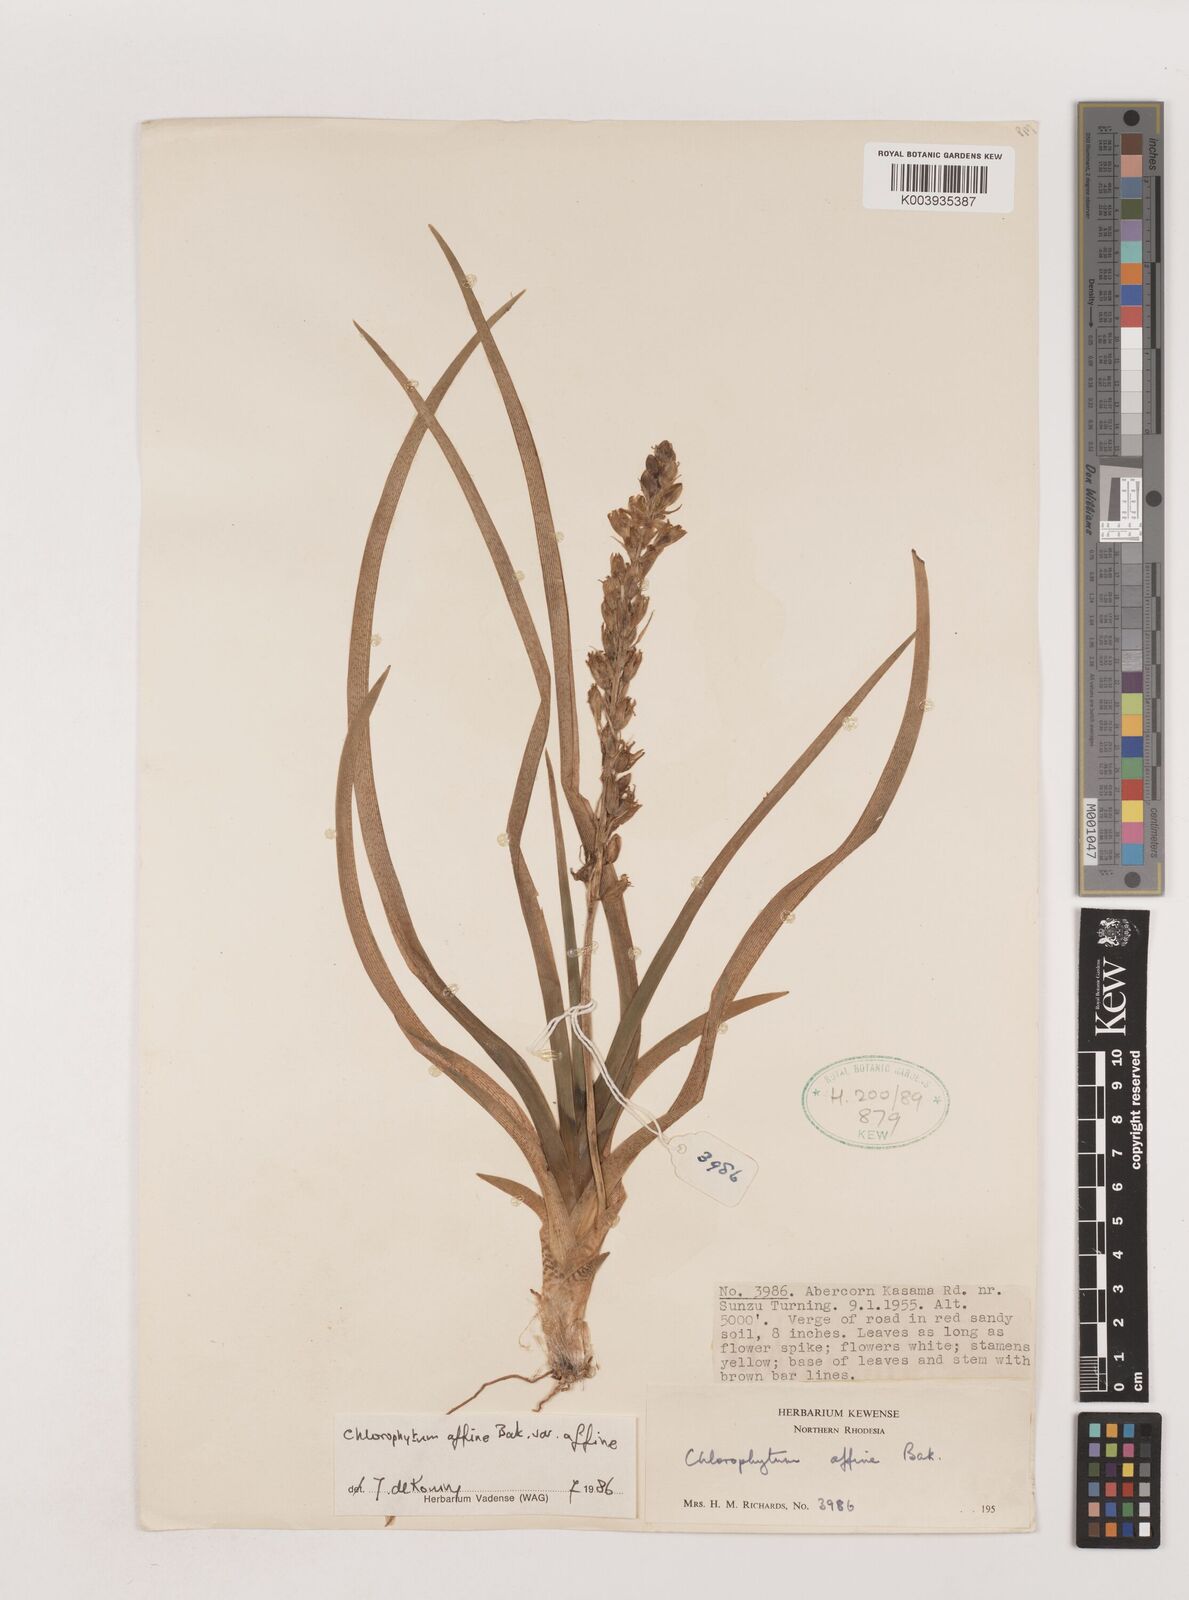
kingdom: Plantae
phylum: Tracheophyta
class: Liliopsida
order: Asparagales
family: Asparagaceae
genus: Chlorophytum
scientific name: Chlorophytum affine
